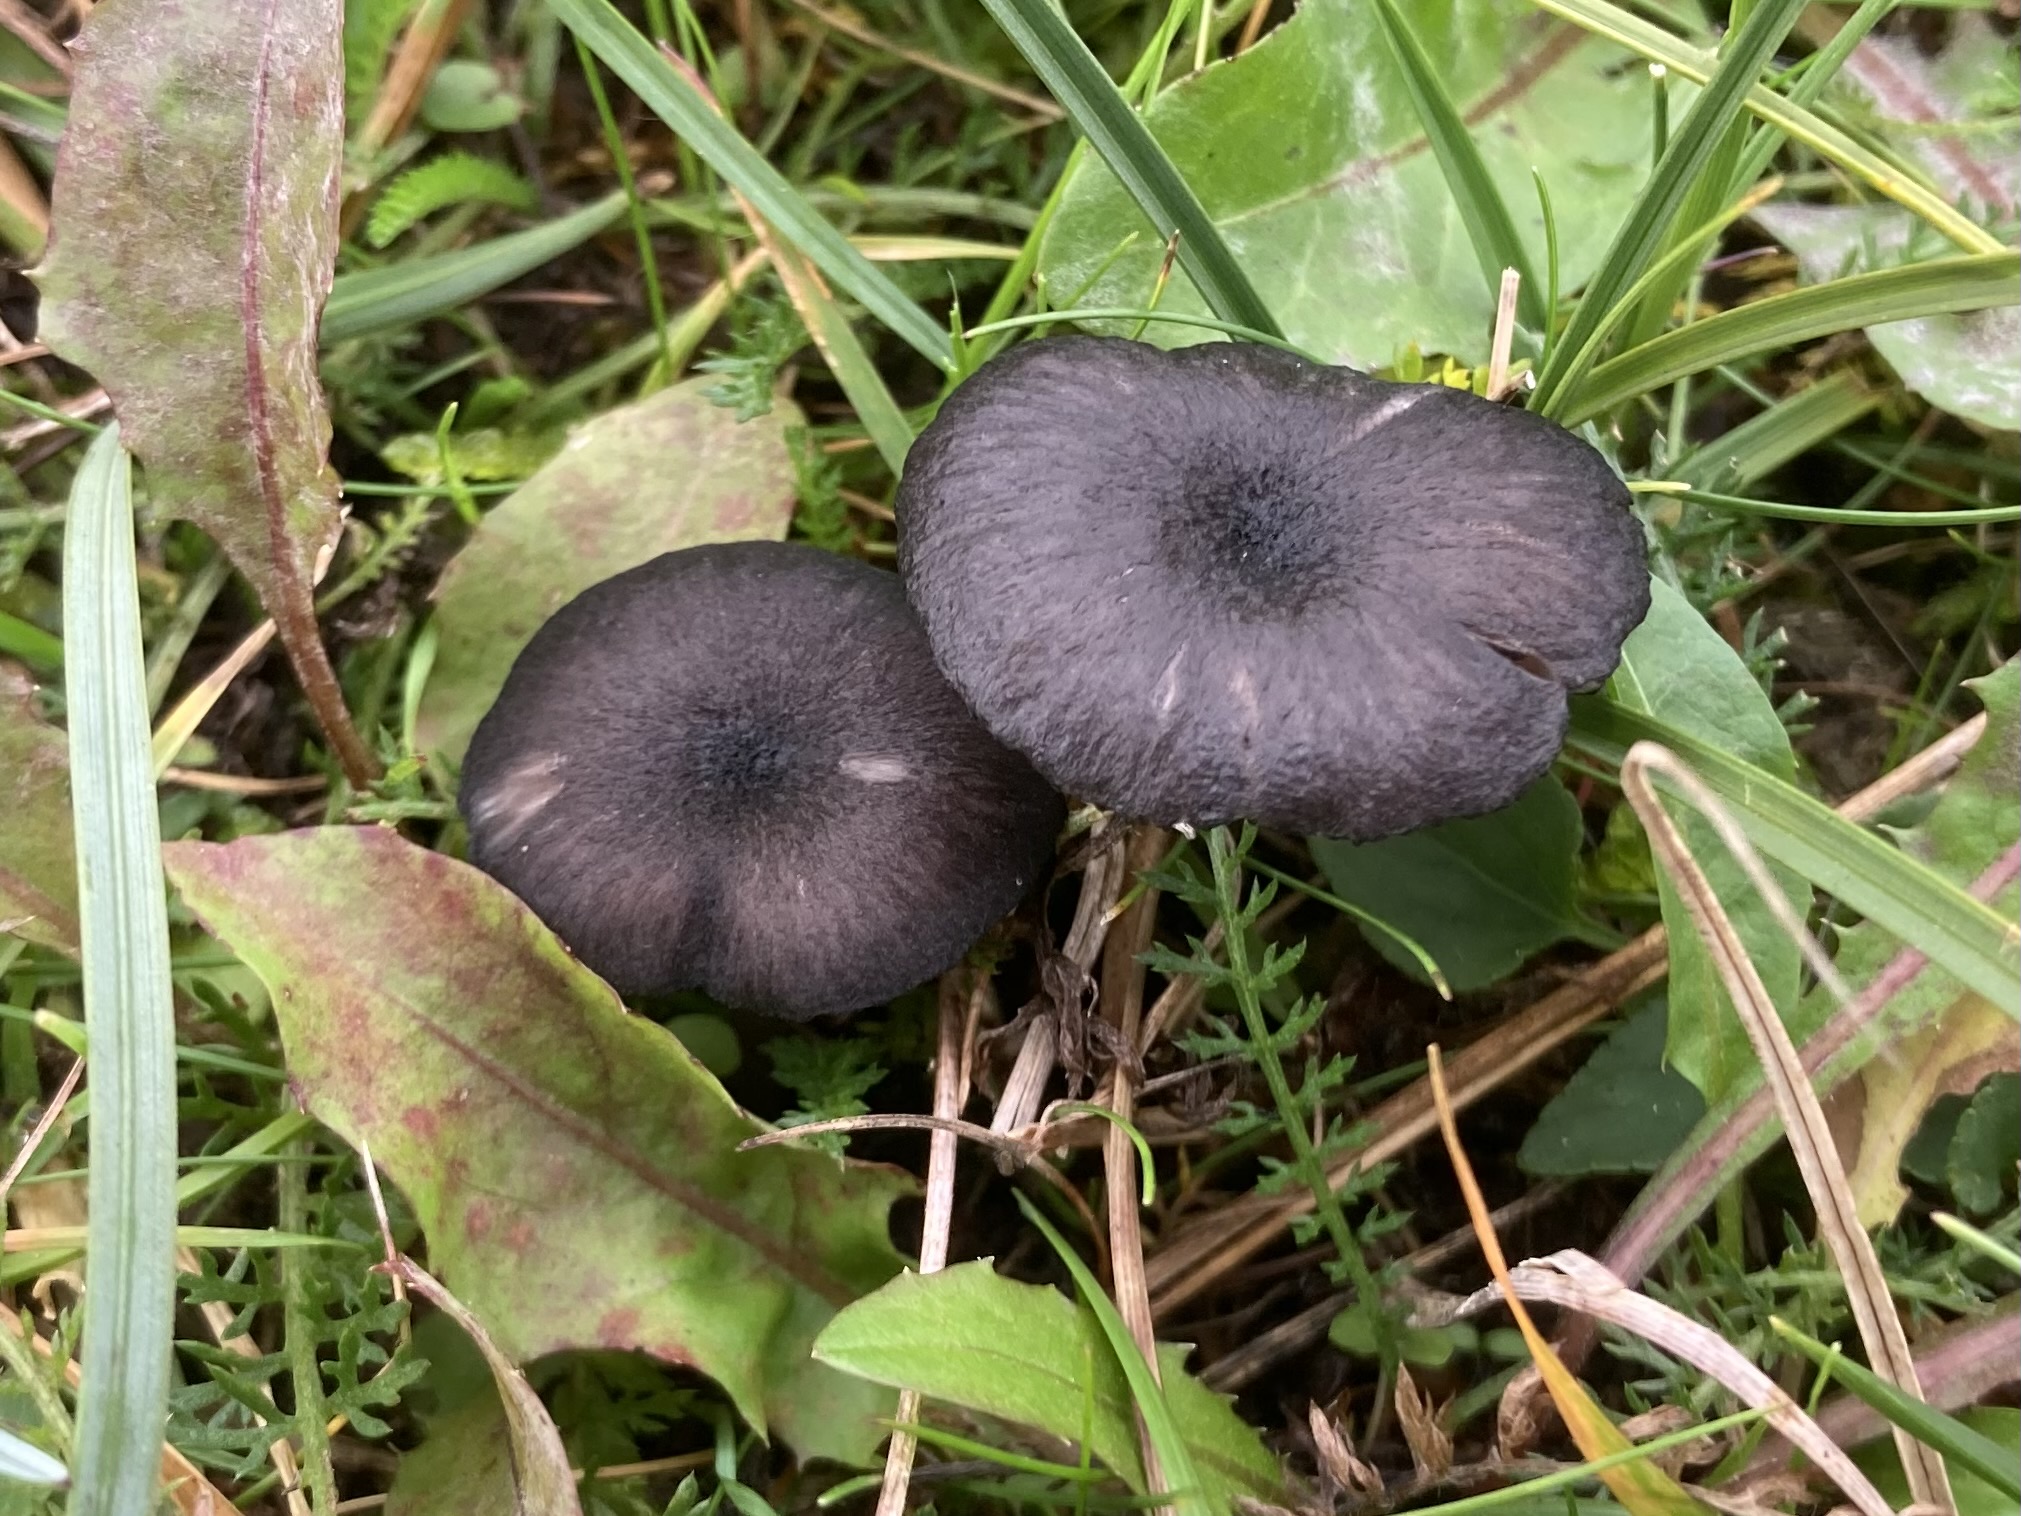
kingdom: Fungi
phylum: Basidiomycota
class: Agaricomycetes
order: Agaricales
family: Entolomataceae
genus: Entoloma
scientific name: Entoloma serrulatum
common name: savbladet rødblad
